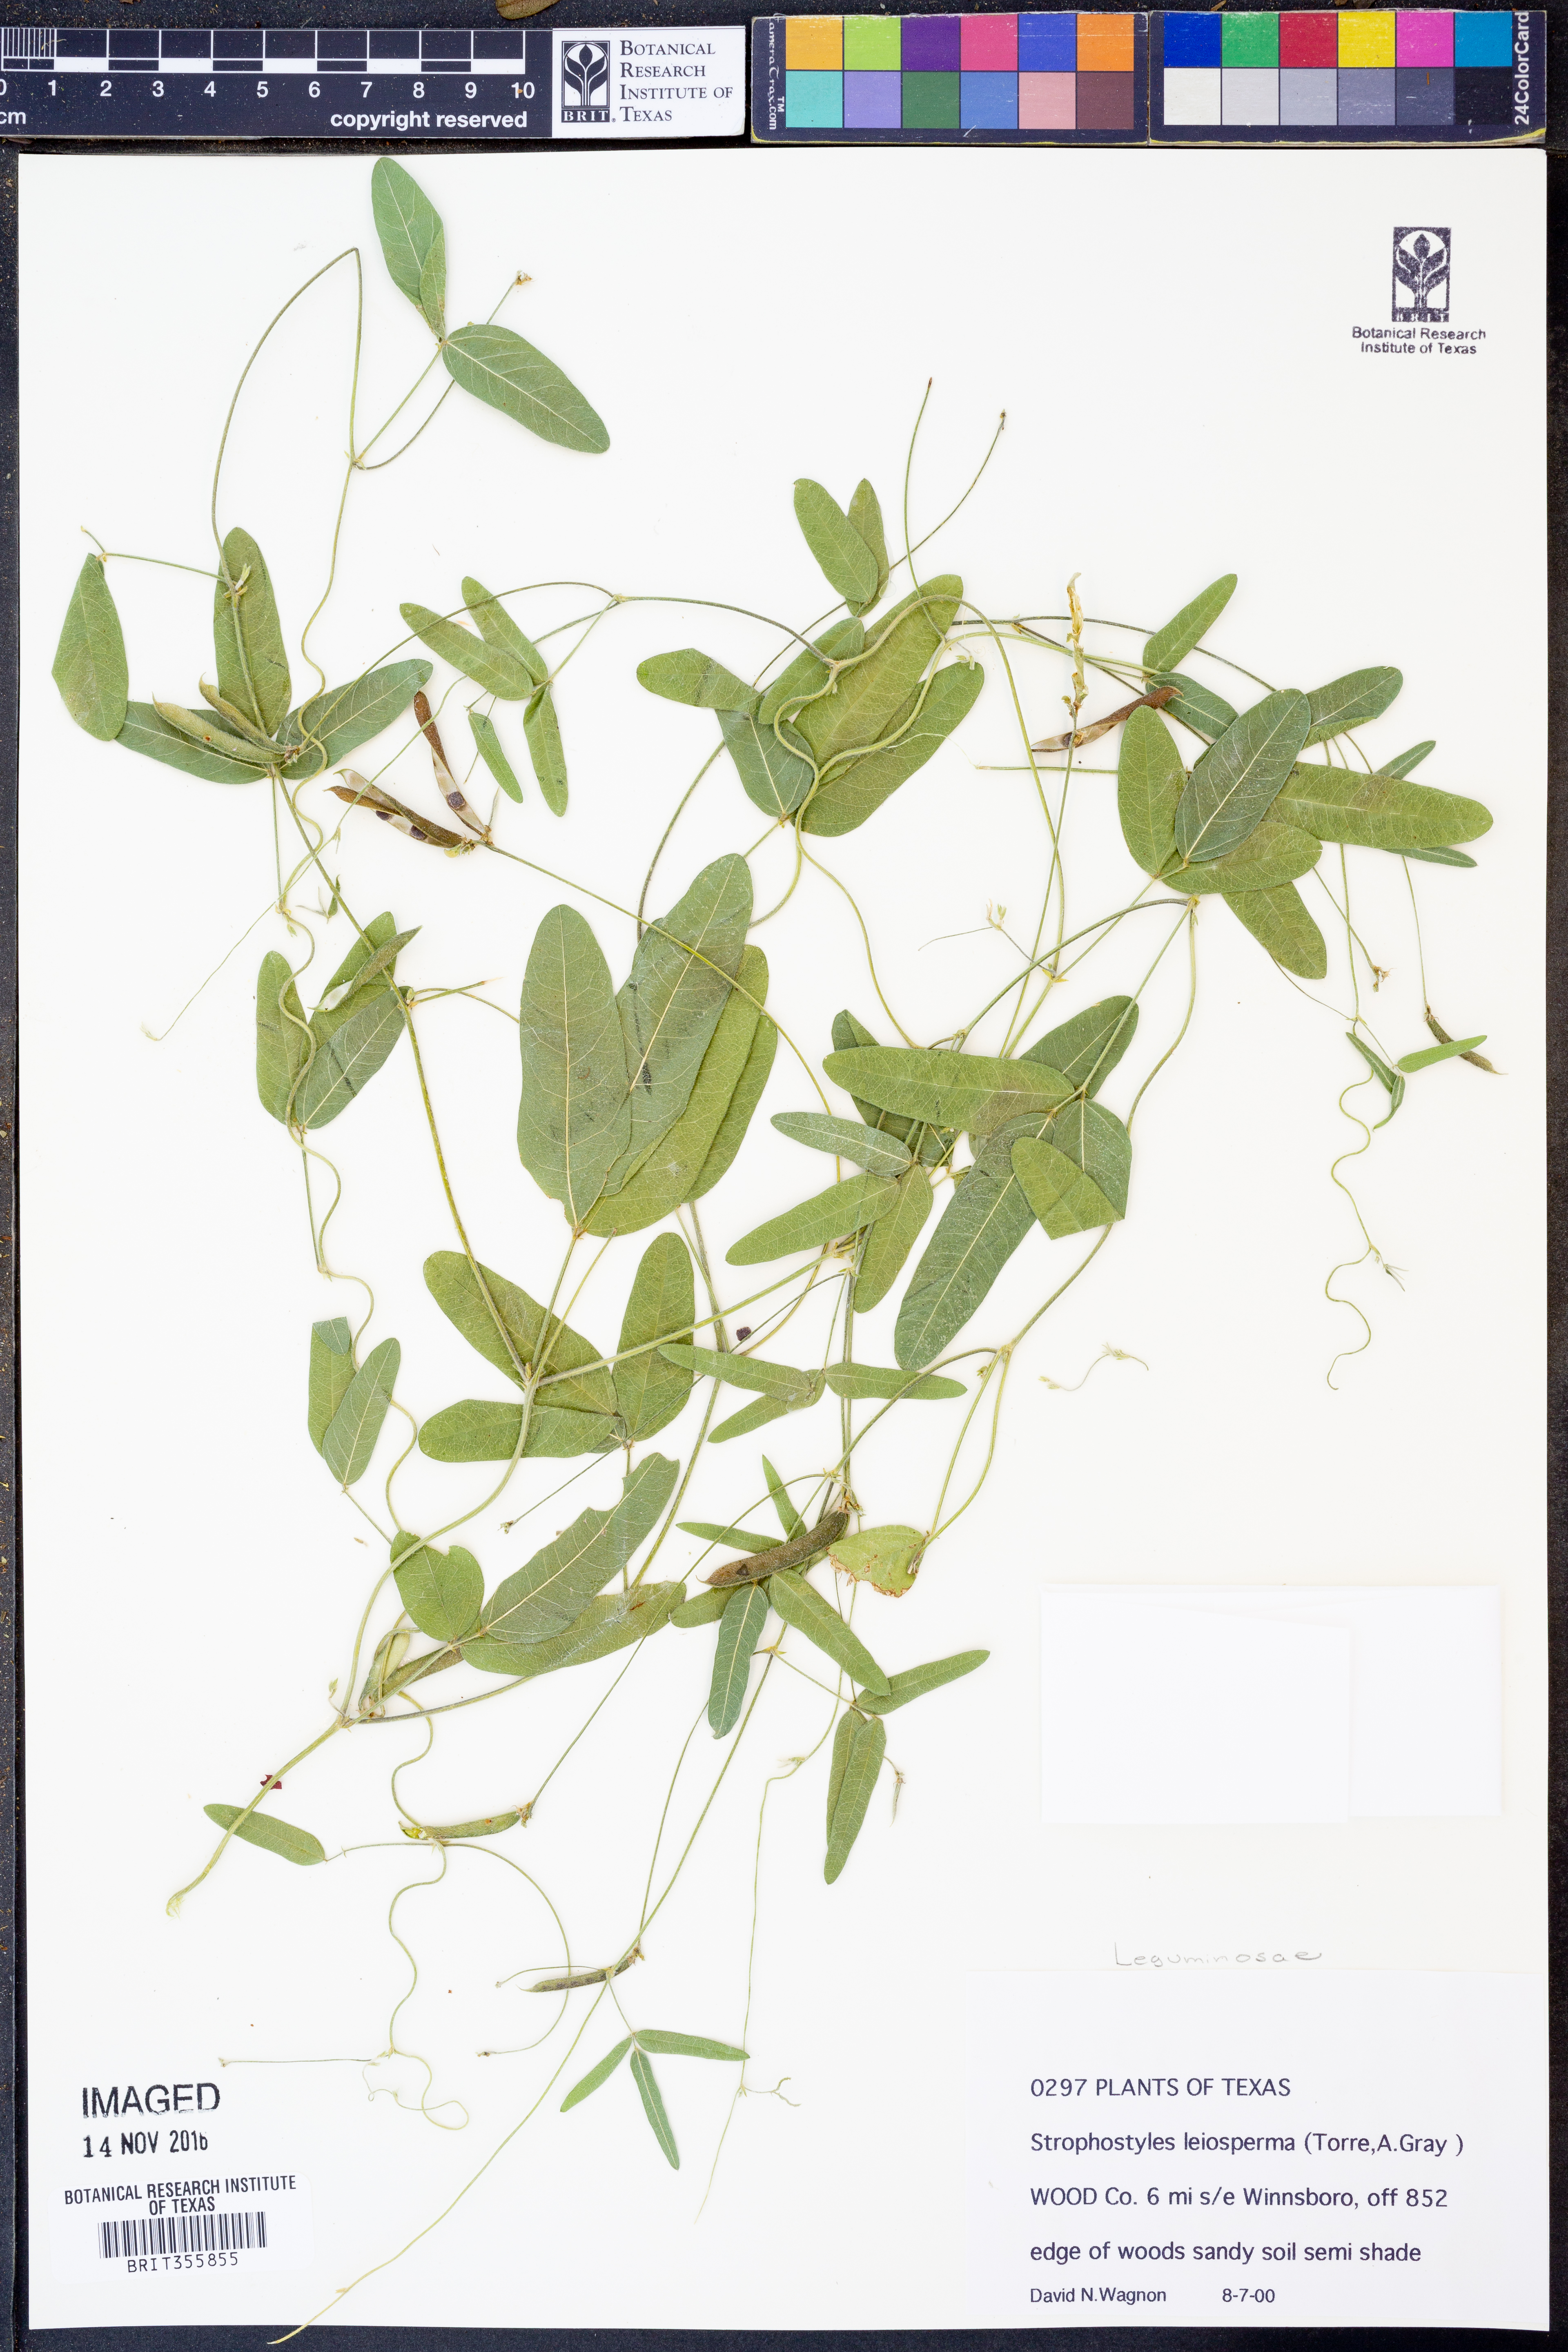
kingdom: Plantae
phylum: Tracheophyta
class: Magnoliopsida
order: Fabales
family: Fabaceae
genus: Strophostyles
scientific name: Strophostyles leiosperma
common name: Smooth-seed wild bean
